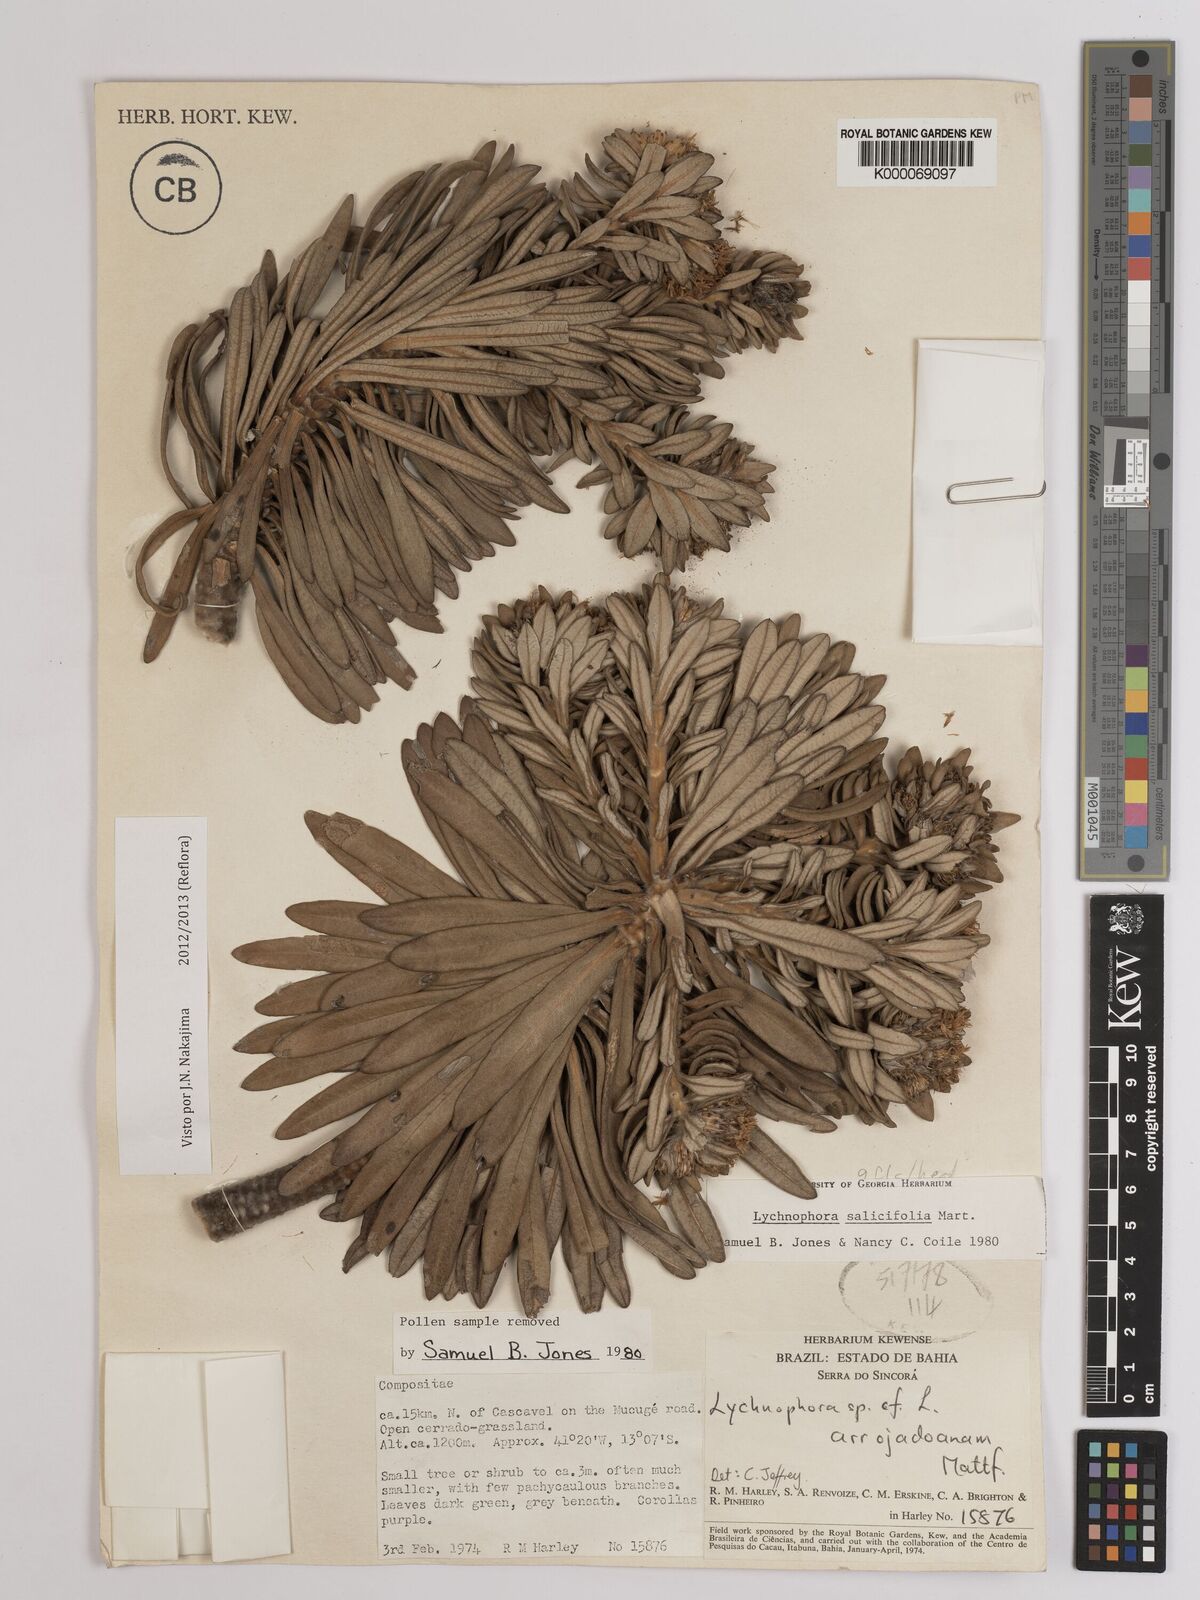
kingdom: Plantae
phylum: Tracheophyta
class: Magnoliopsida
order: Asterales
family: Asteraceae
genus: Lychnophora
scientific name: Lychnophora salicifolia
